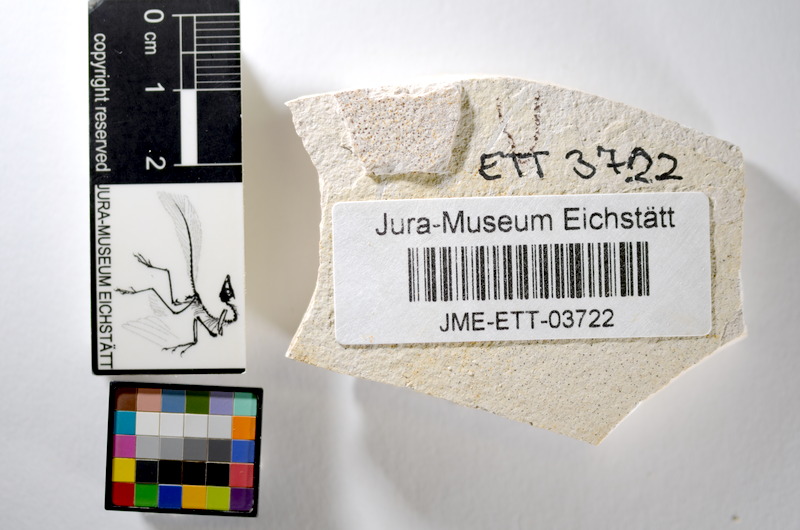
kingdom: Animalia
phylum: Chordata
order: Salmoniformes
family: Orthogonikleithridae
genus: Orthogonikleithrus
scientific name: Orthogonikleithrus hoelli
